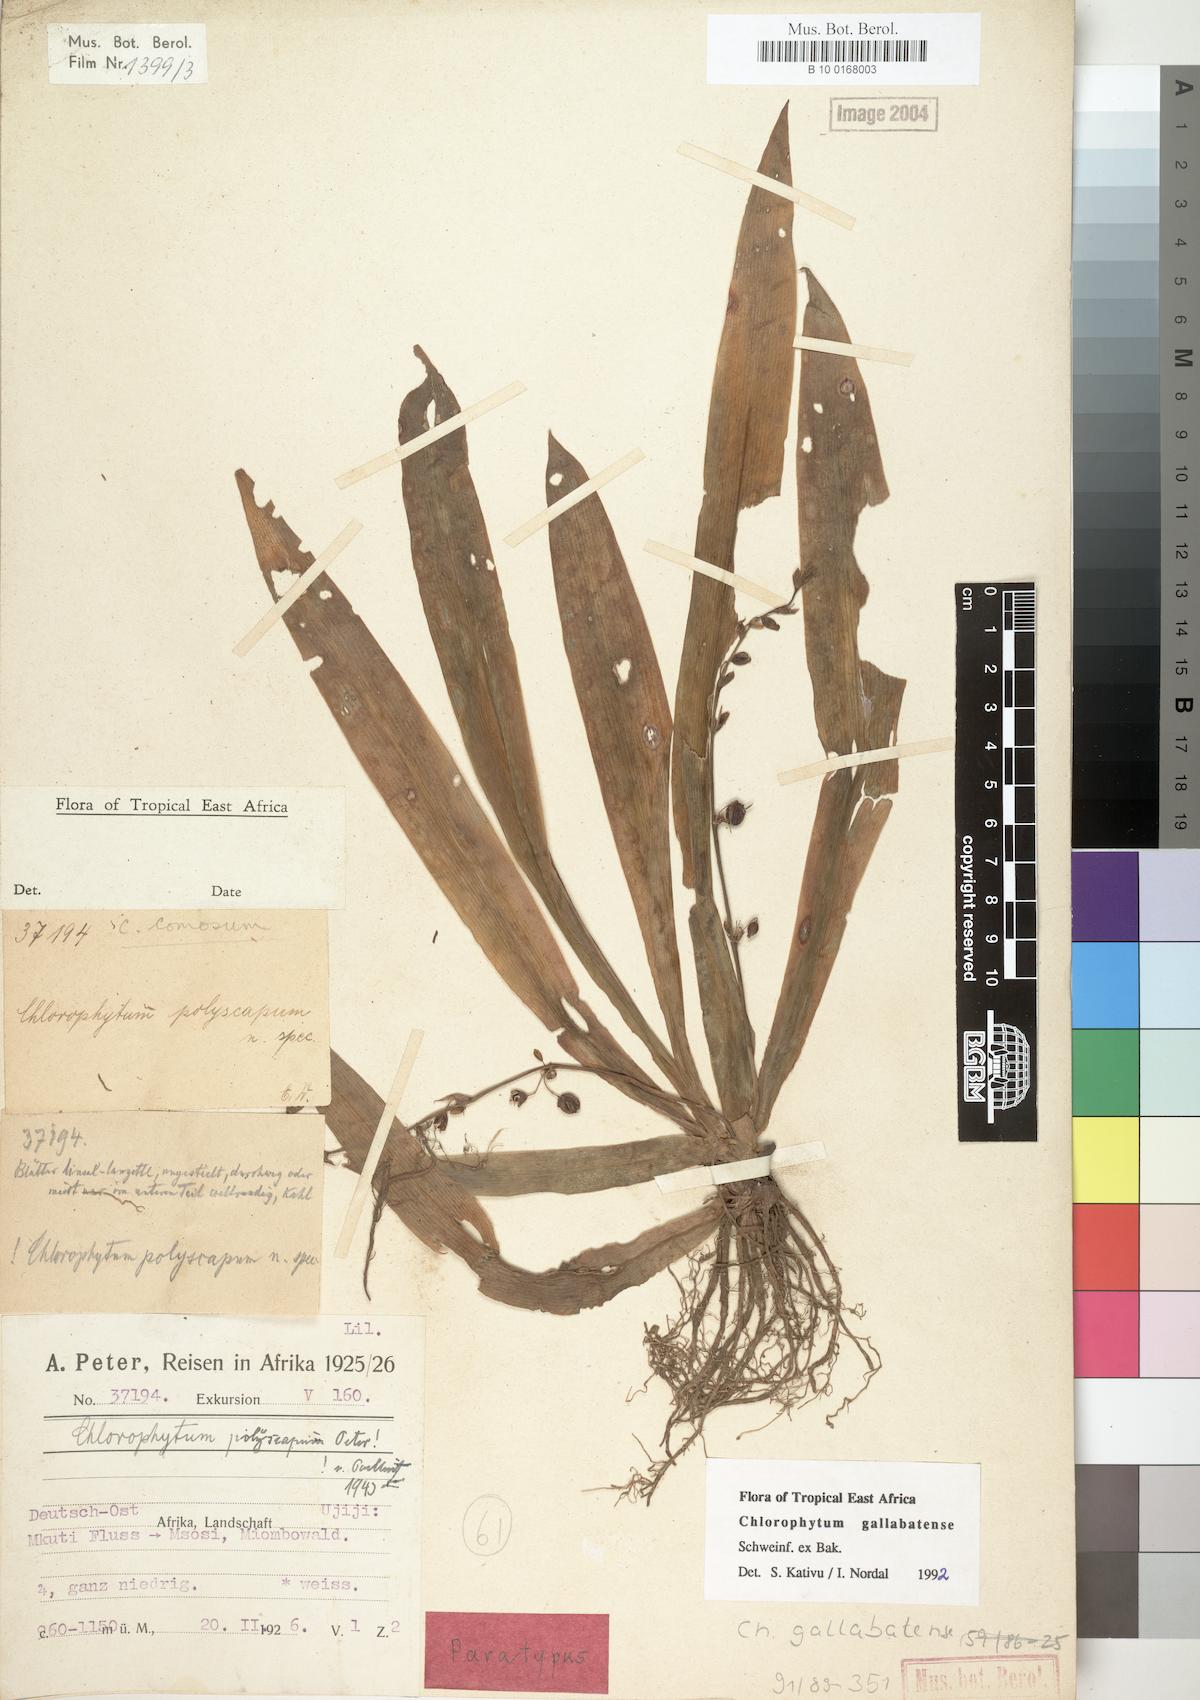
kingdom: Plantae
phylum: Tracheophyta
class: Liliopsida
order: Asparagales
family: Asparagaceae
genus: Chlorophytum
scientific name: Chlorophytum gallabatense
